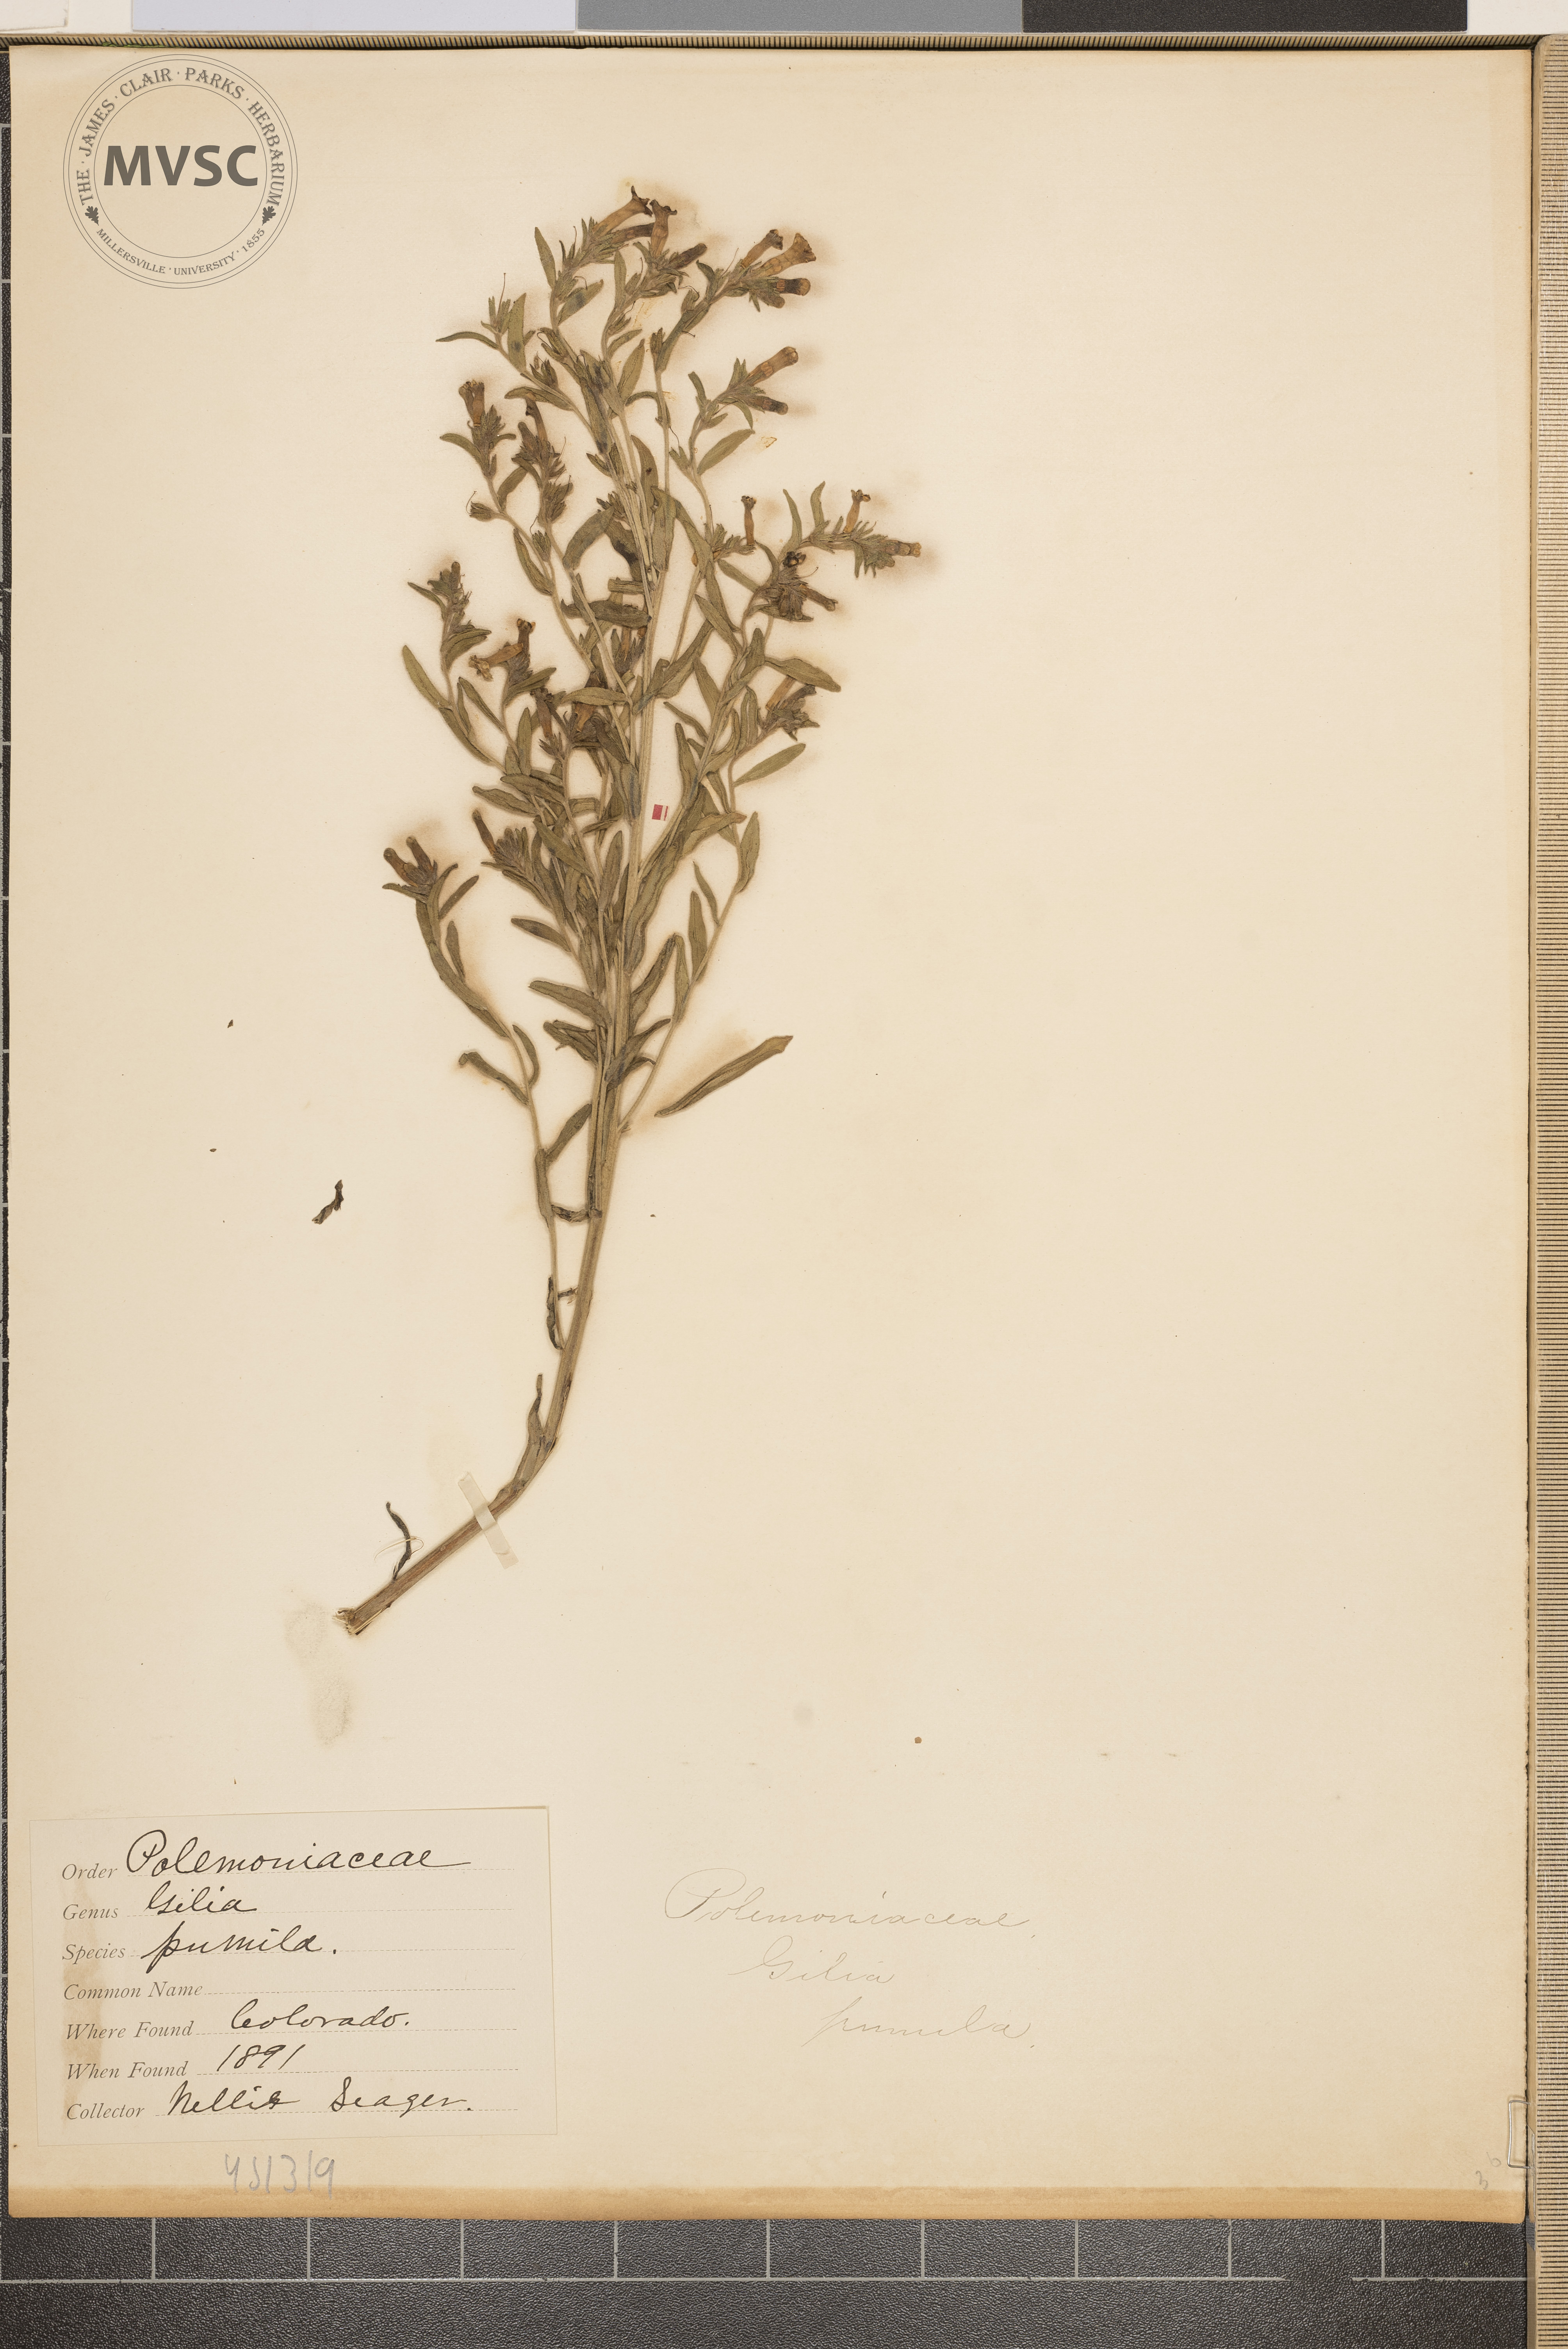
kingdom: Plantae
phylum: Tracheophyta
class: Magnoliopsida
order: Ericales
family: Polemoniaceae
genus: Ipomopsis
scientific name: Ipomopsis pumila
